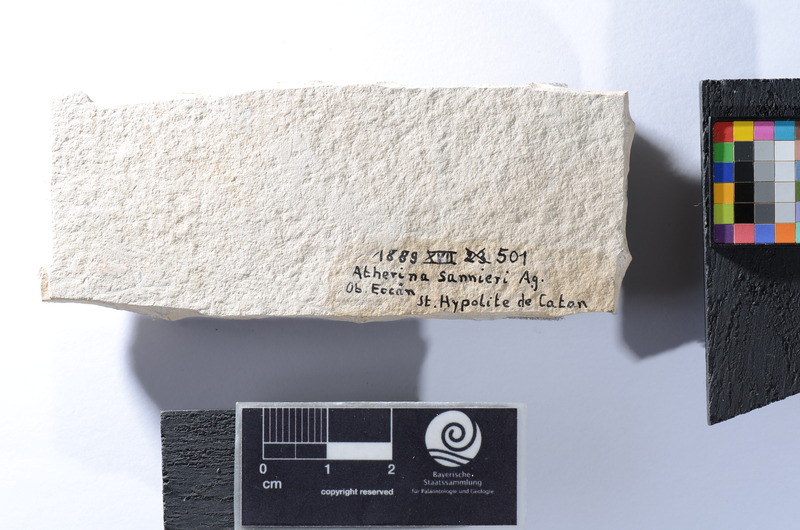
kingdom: Animalia
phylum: Chordata
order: Atheriniformes
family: Atherinidae
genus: Atherina
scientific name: Atherina
